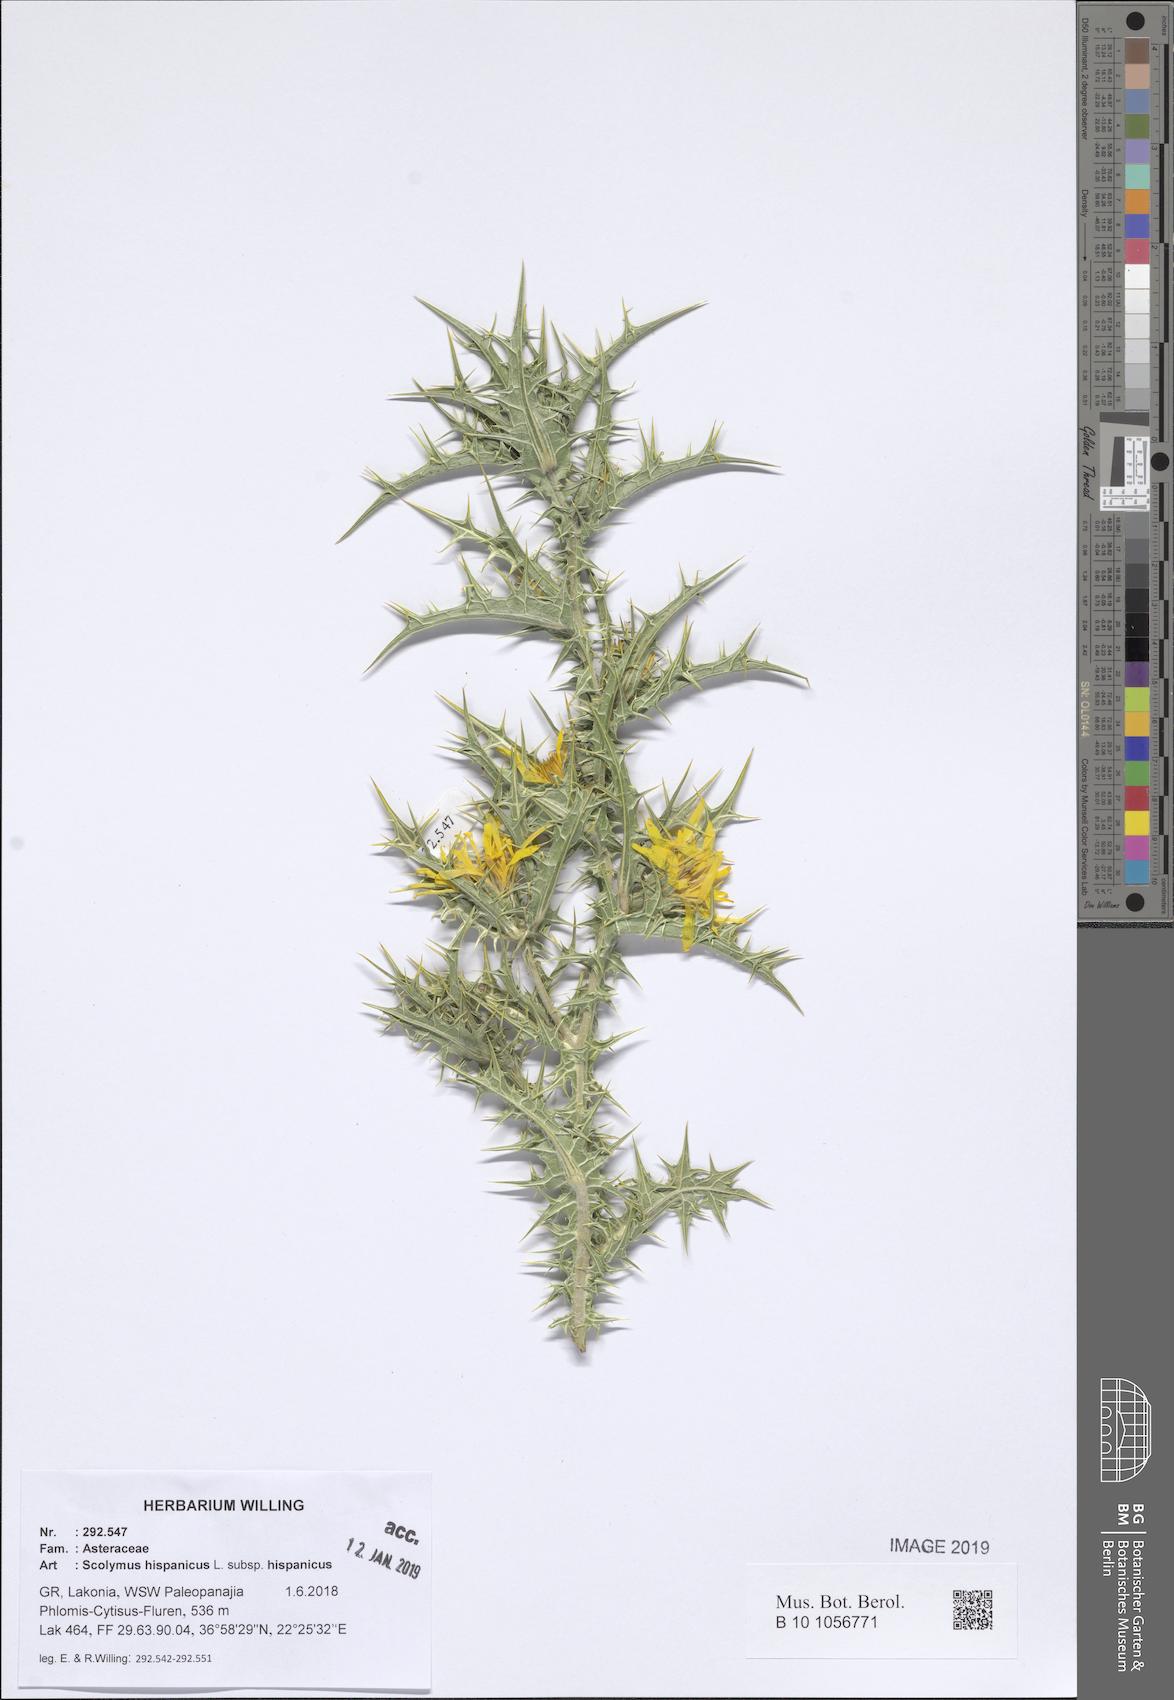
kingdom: Plantae
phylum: Tracheophyta
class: Magnoliopsida
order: Asterales
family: Asteraceae
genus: Scolymus
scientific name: Scolymus hispanicus
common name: Golden thistle
